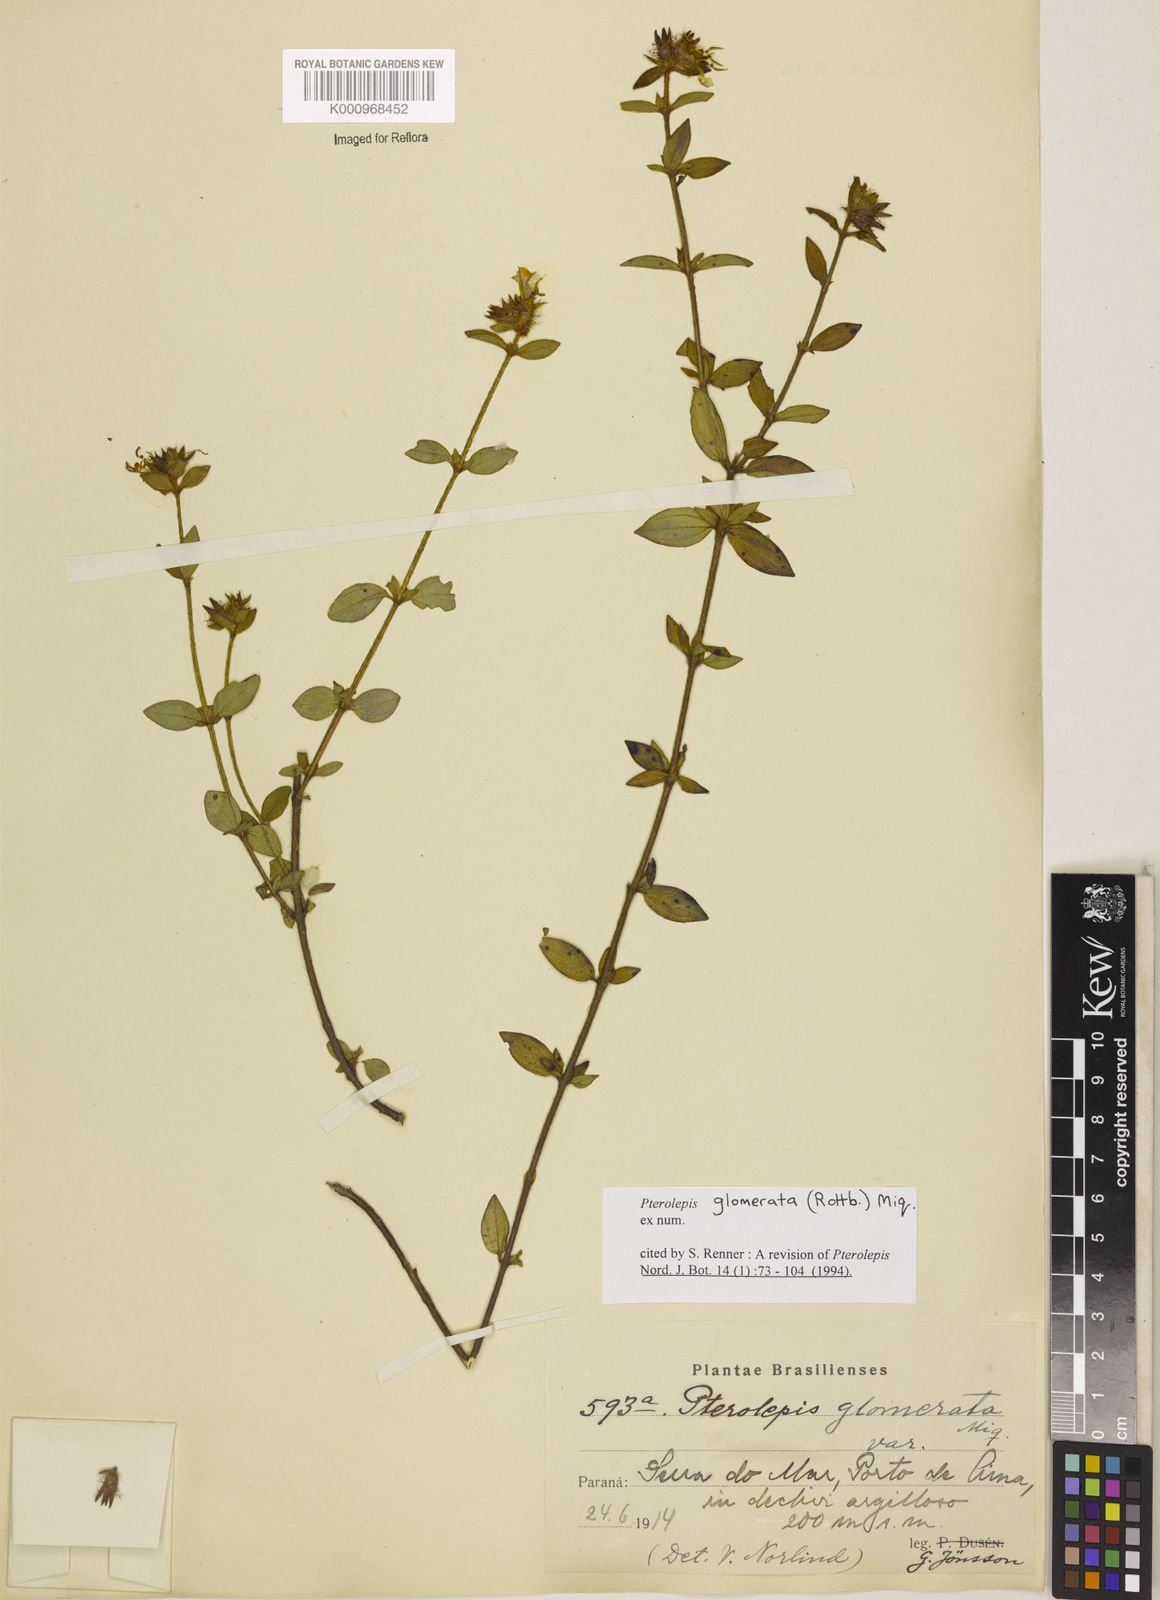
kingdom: Plantae
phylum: Tracheophyta
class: Magnoliopsida
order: Myrtales
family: Melastomataceae
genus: Pterolepis
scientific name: Pterolepis glomerata
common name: False meadowbeauty
